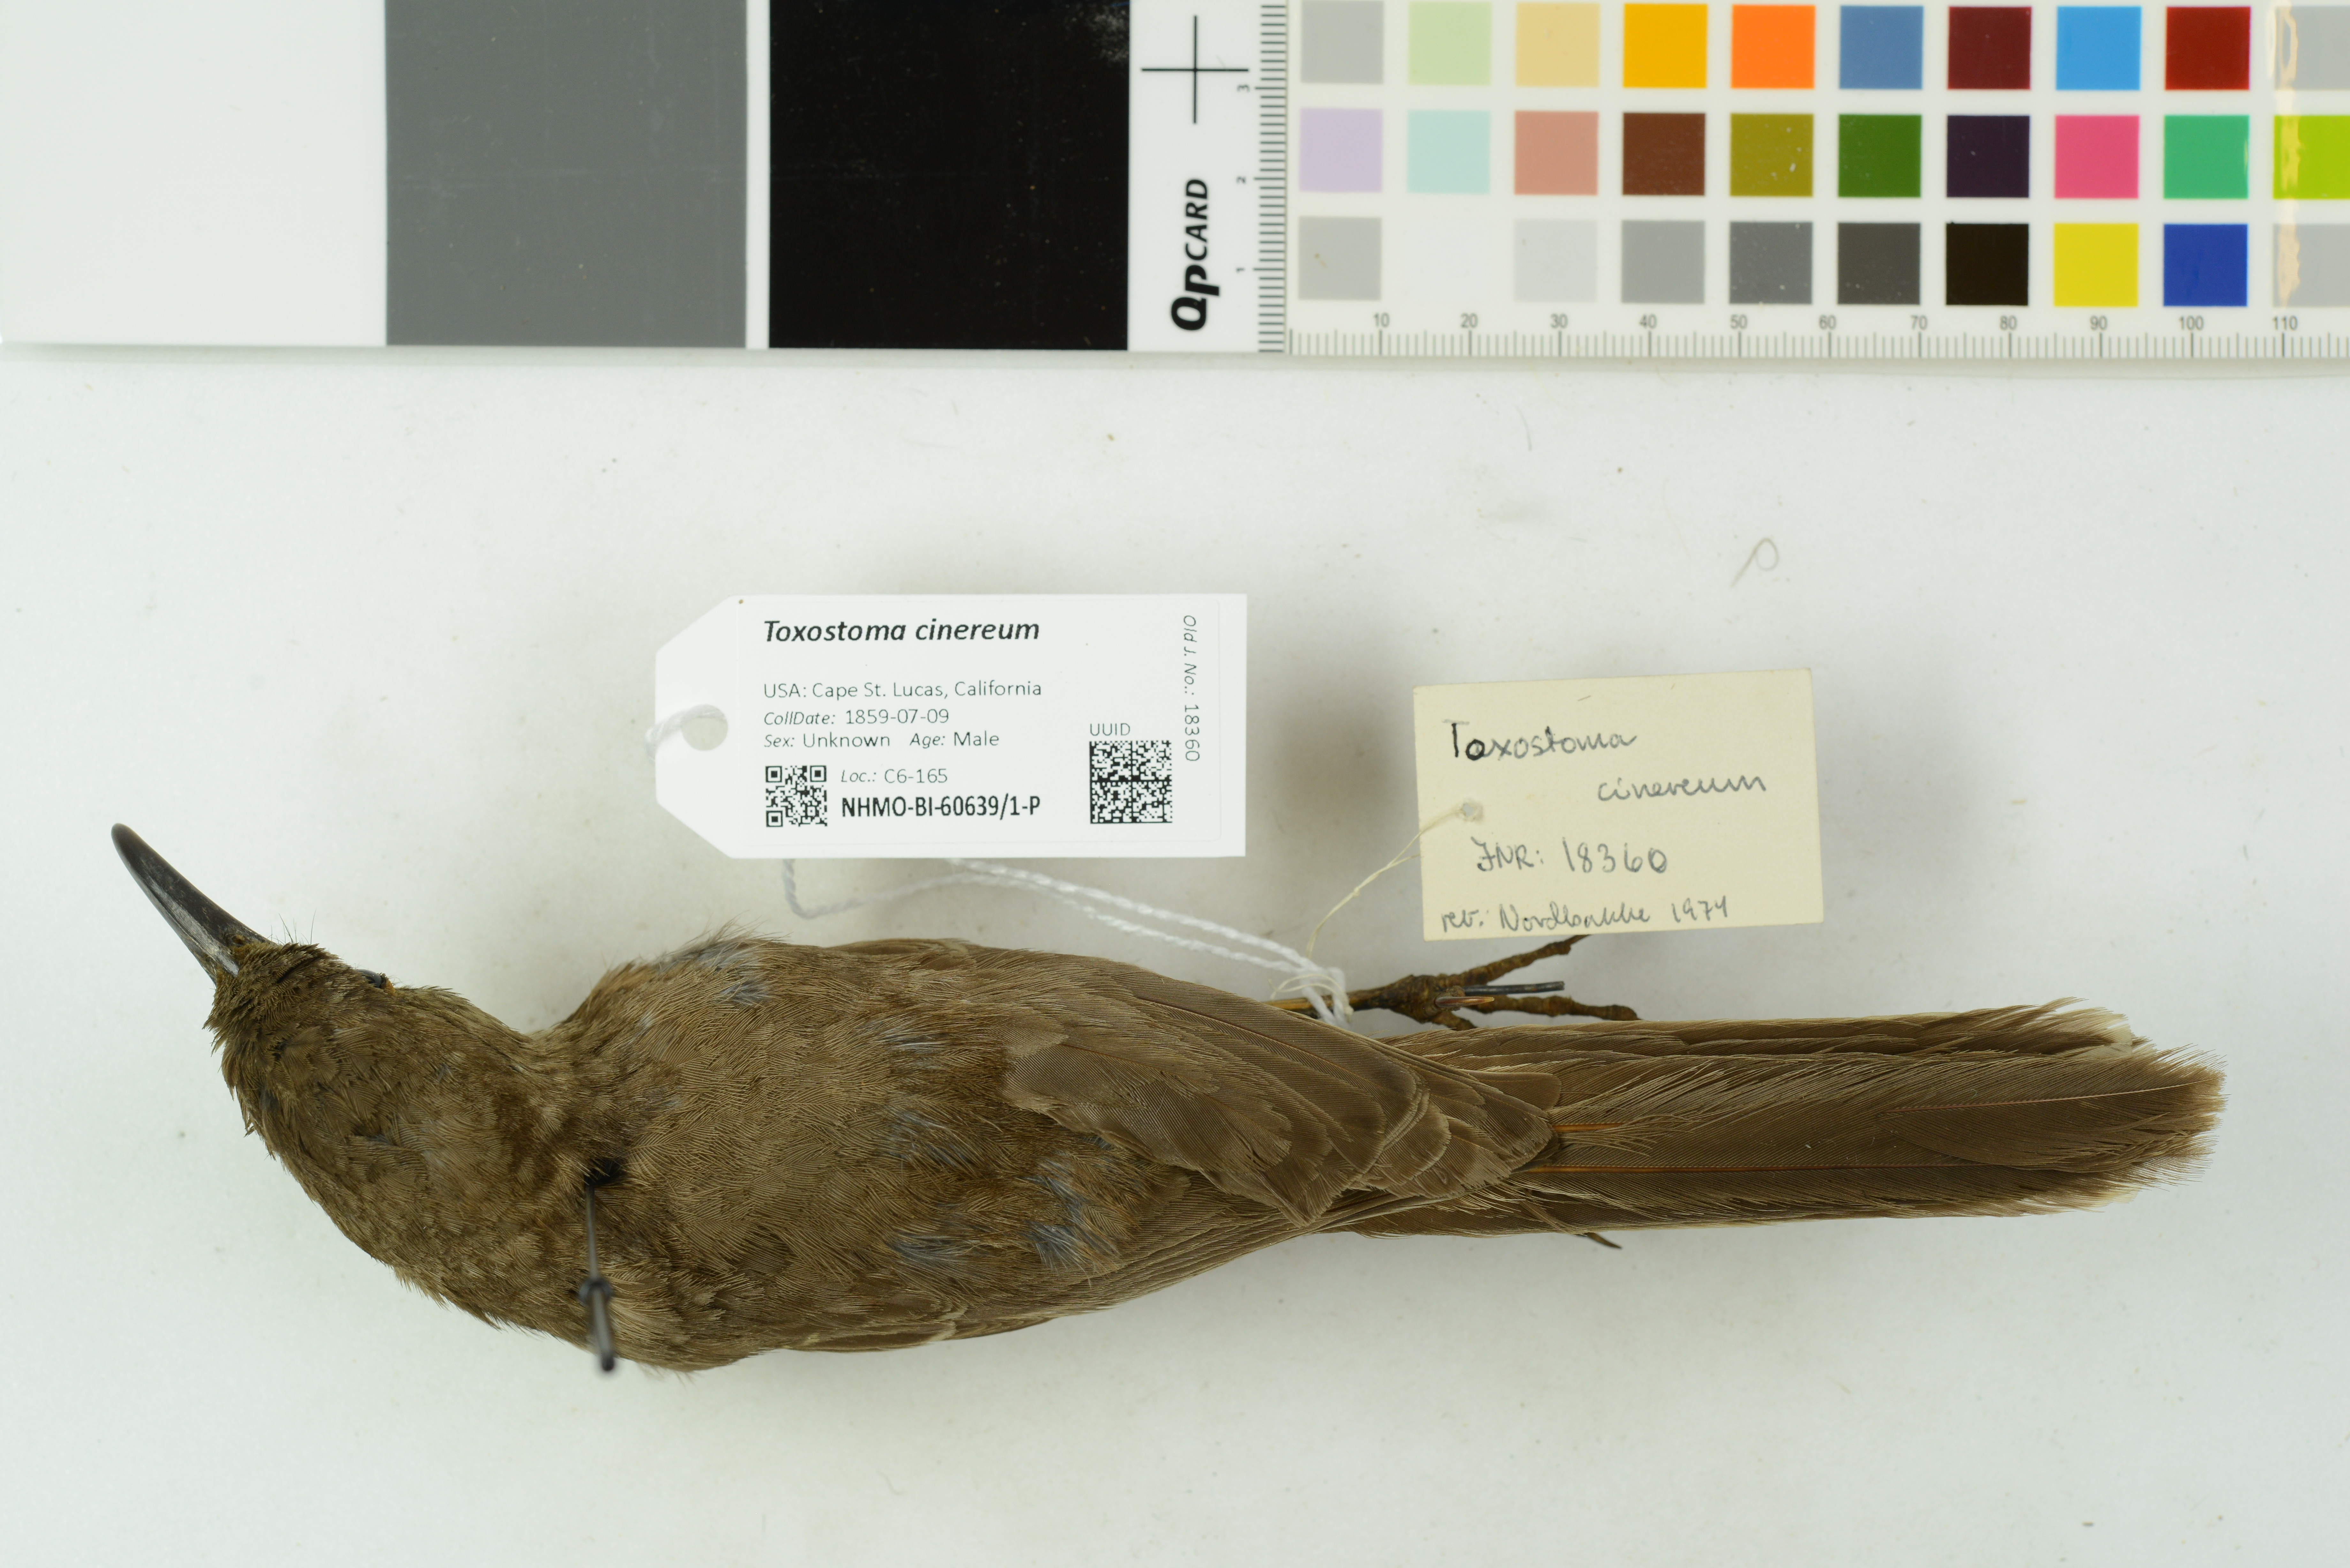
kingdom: Animalia
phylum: Chordata
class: Aves
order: Passeriformes
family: Mimidae
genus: Toxostoma
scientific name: Toxostoma cinereum
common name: Gray thrasher
